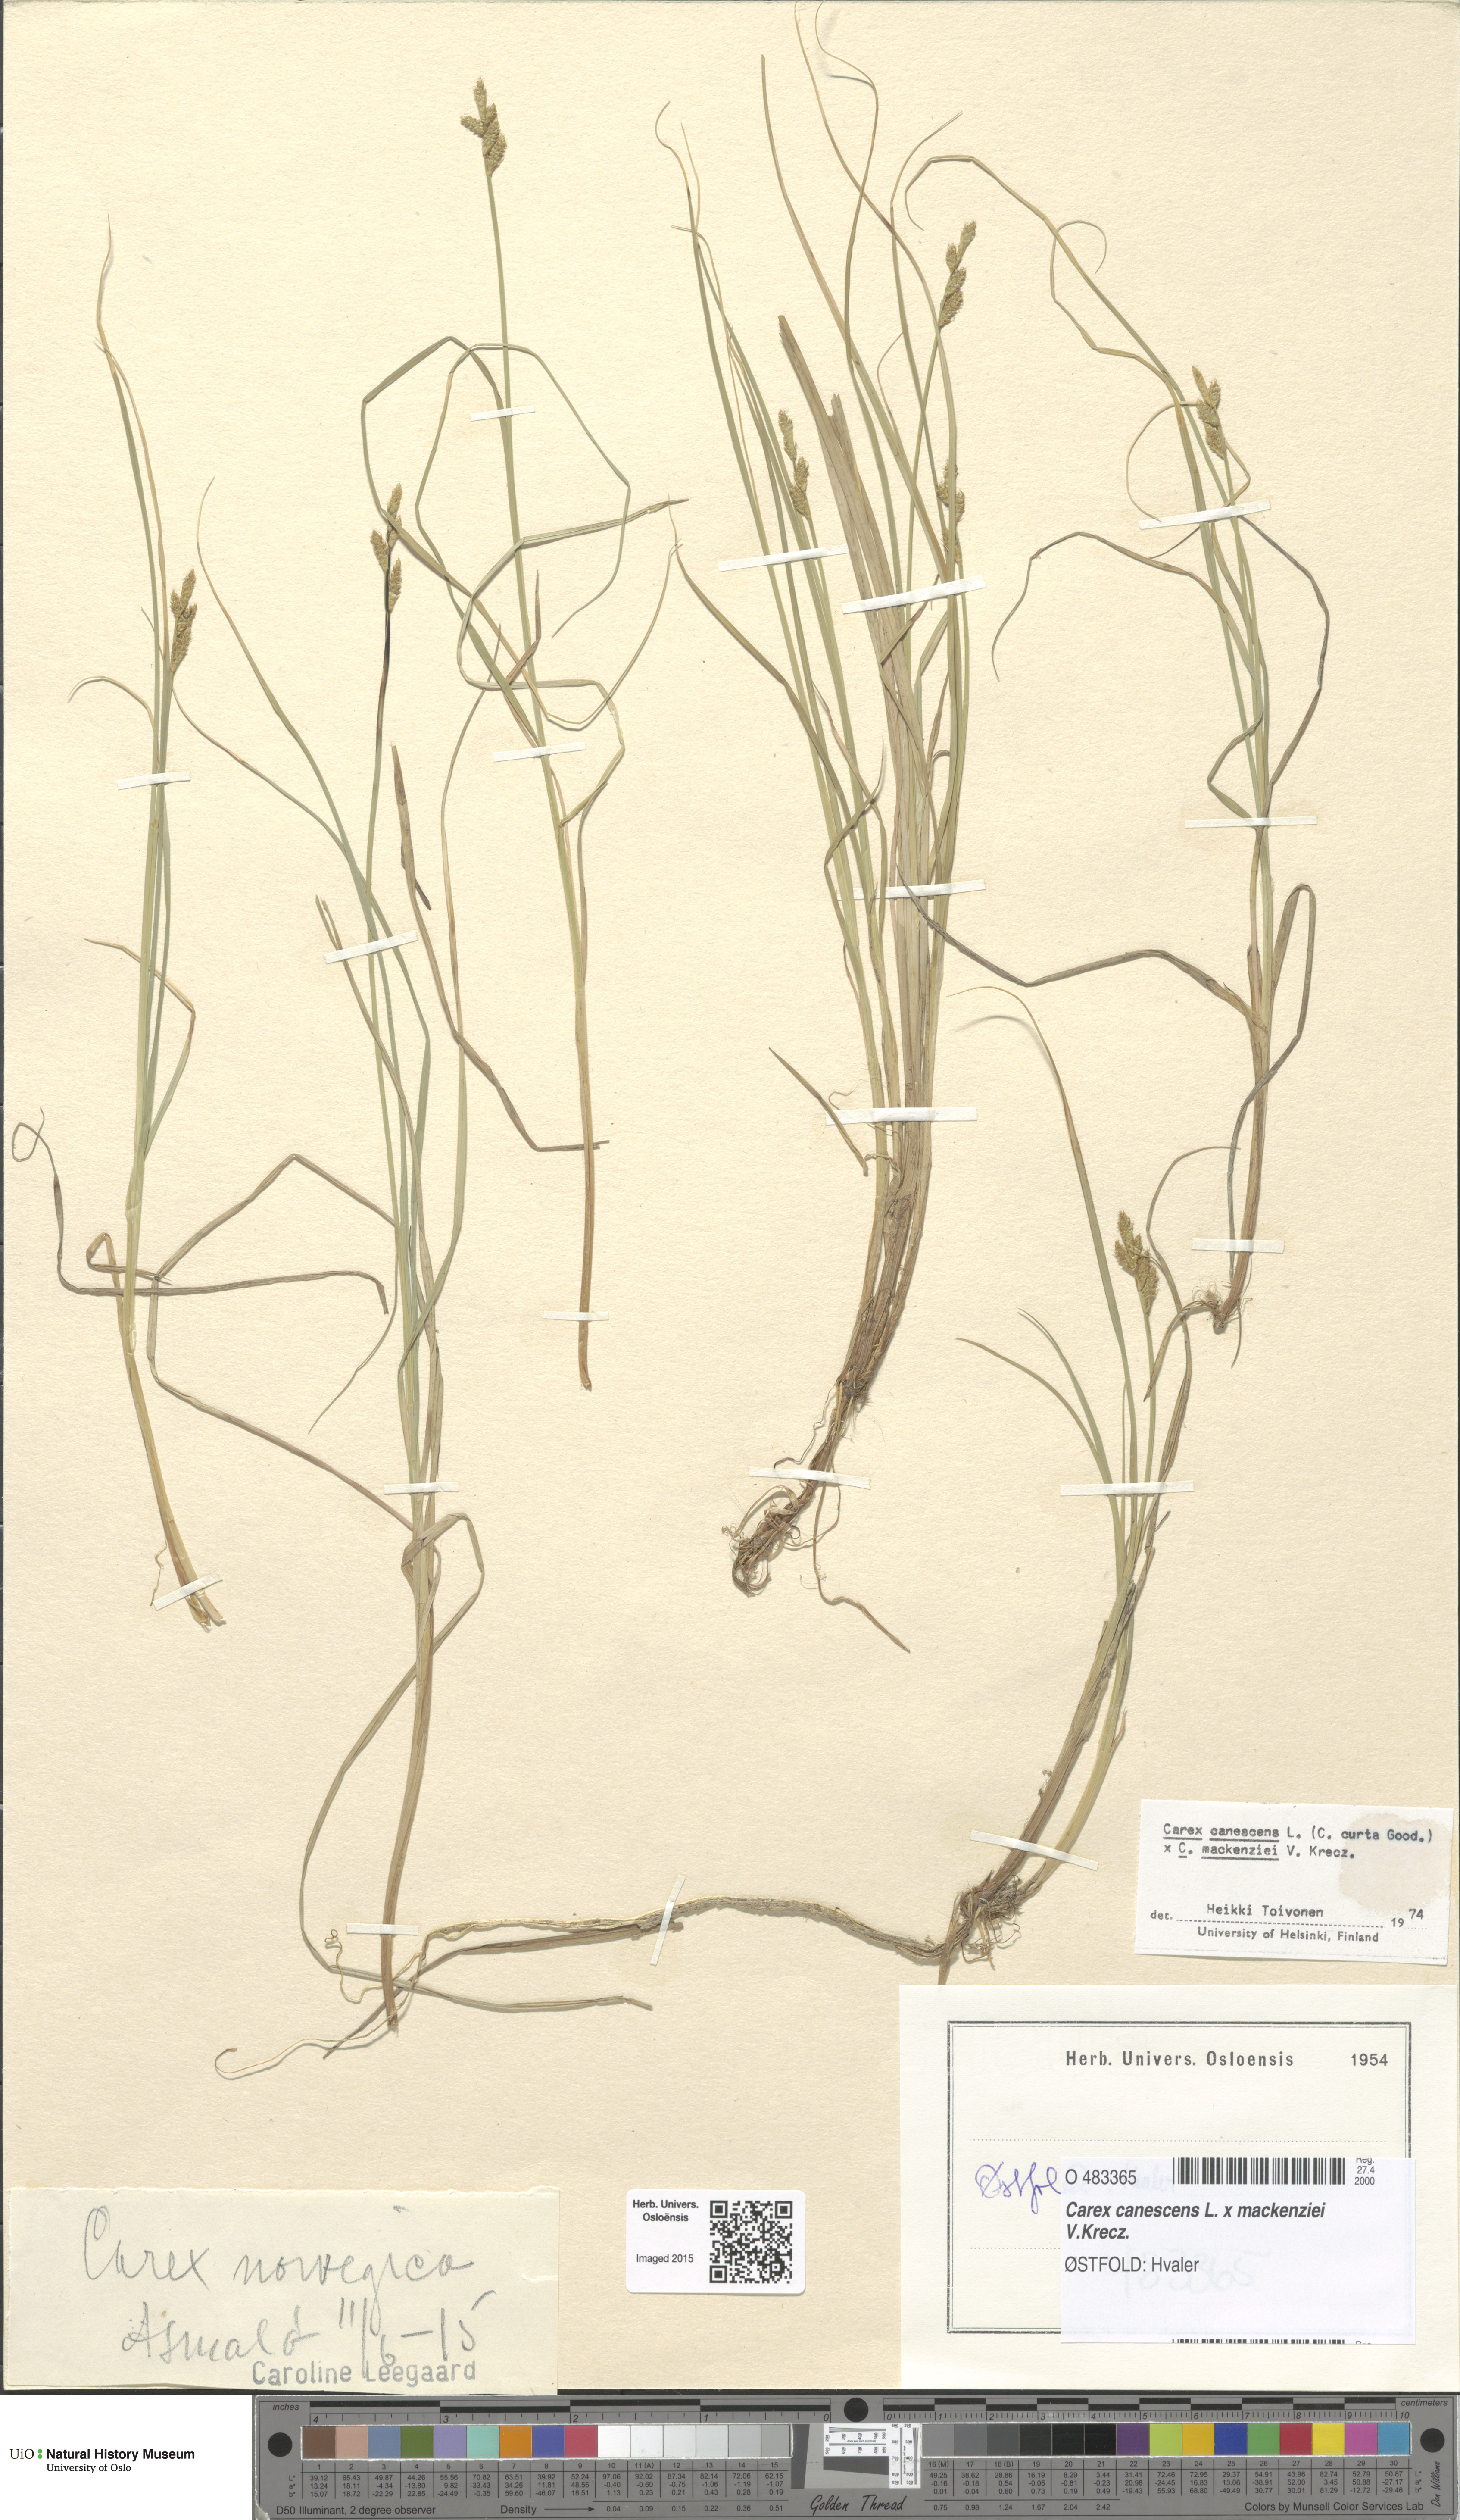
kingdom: Plantae
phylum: Tracheophyta
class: Liliopsida
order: Poales
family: Cyperaceae
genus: Carex
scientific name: Carex
